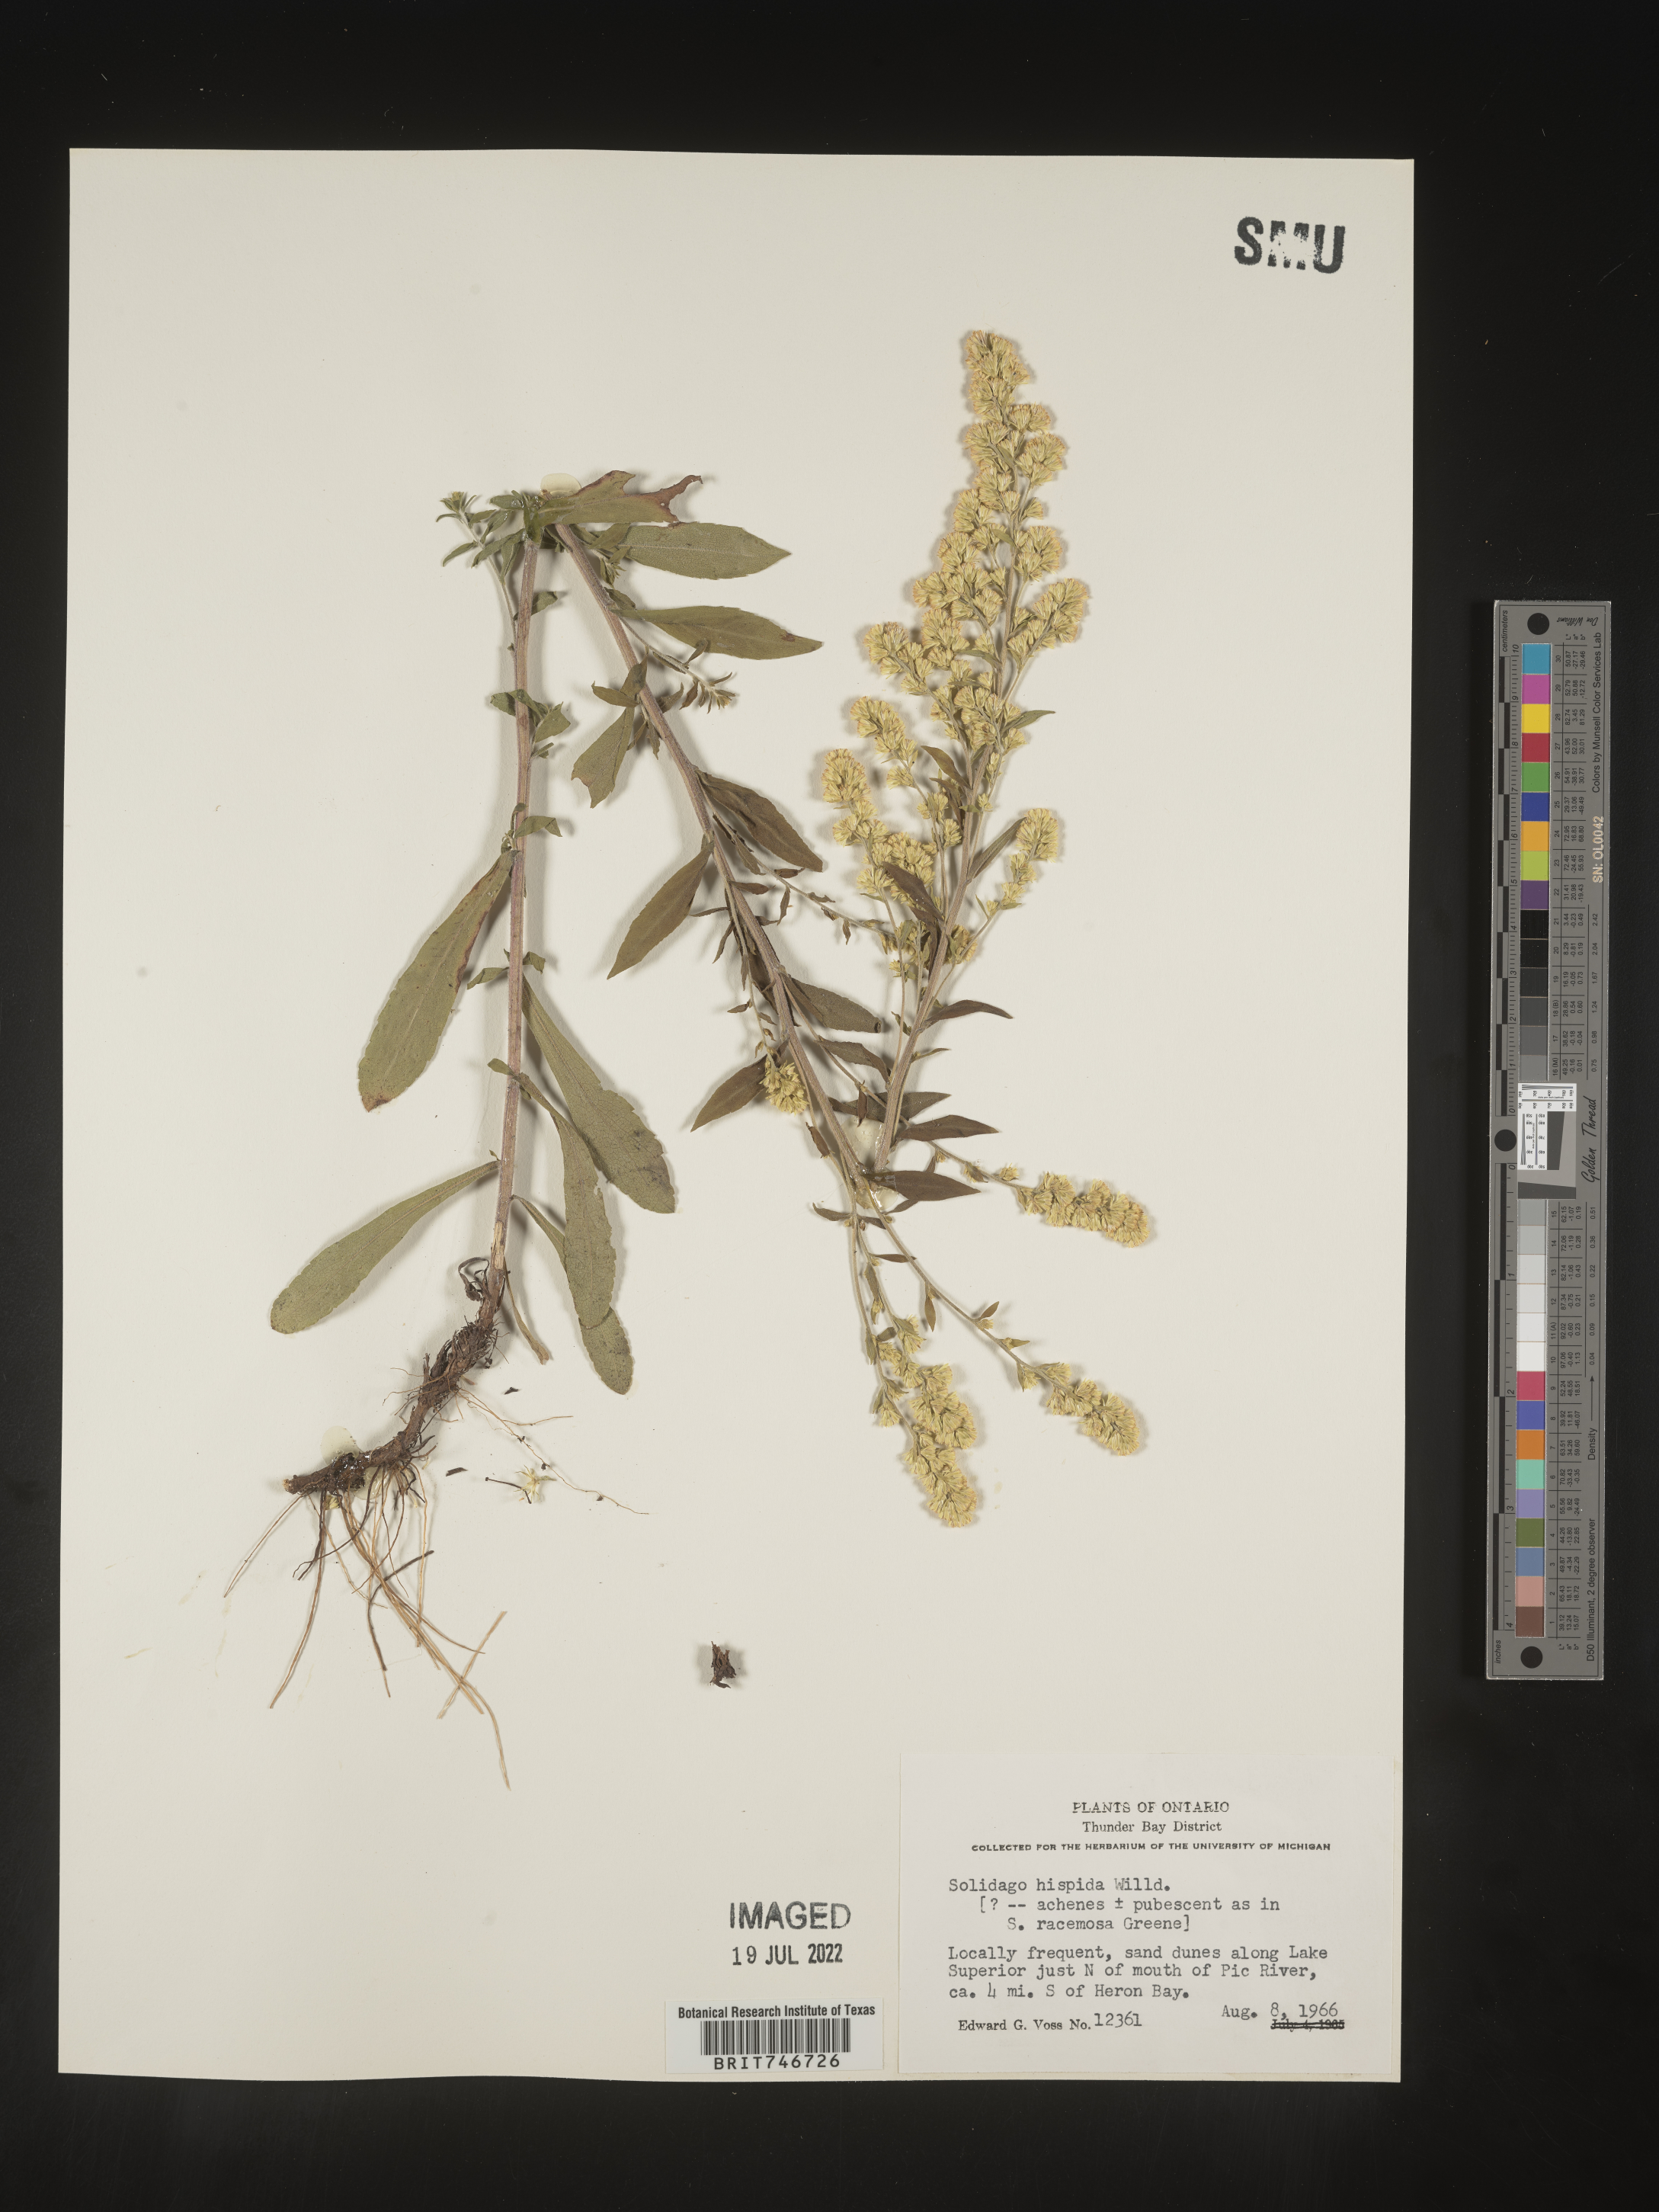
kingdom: Plantae
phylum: Tracheophyta
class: Magnoliopsida
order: Asterales
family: Asteraceae
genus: Solidago
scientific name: Solidago hispida
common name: Hairy goldenrod
